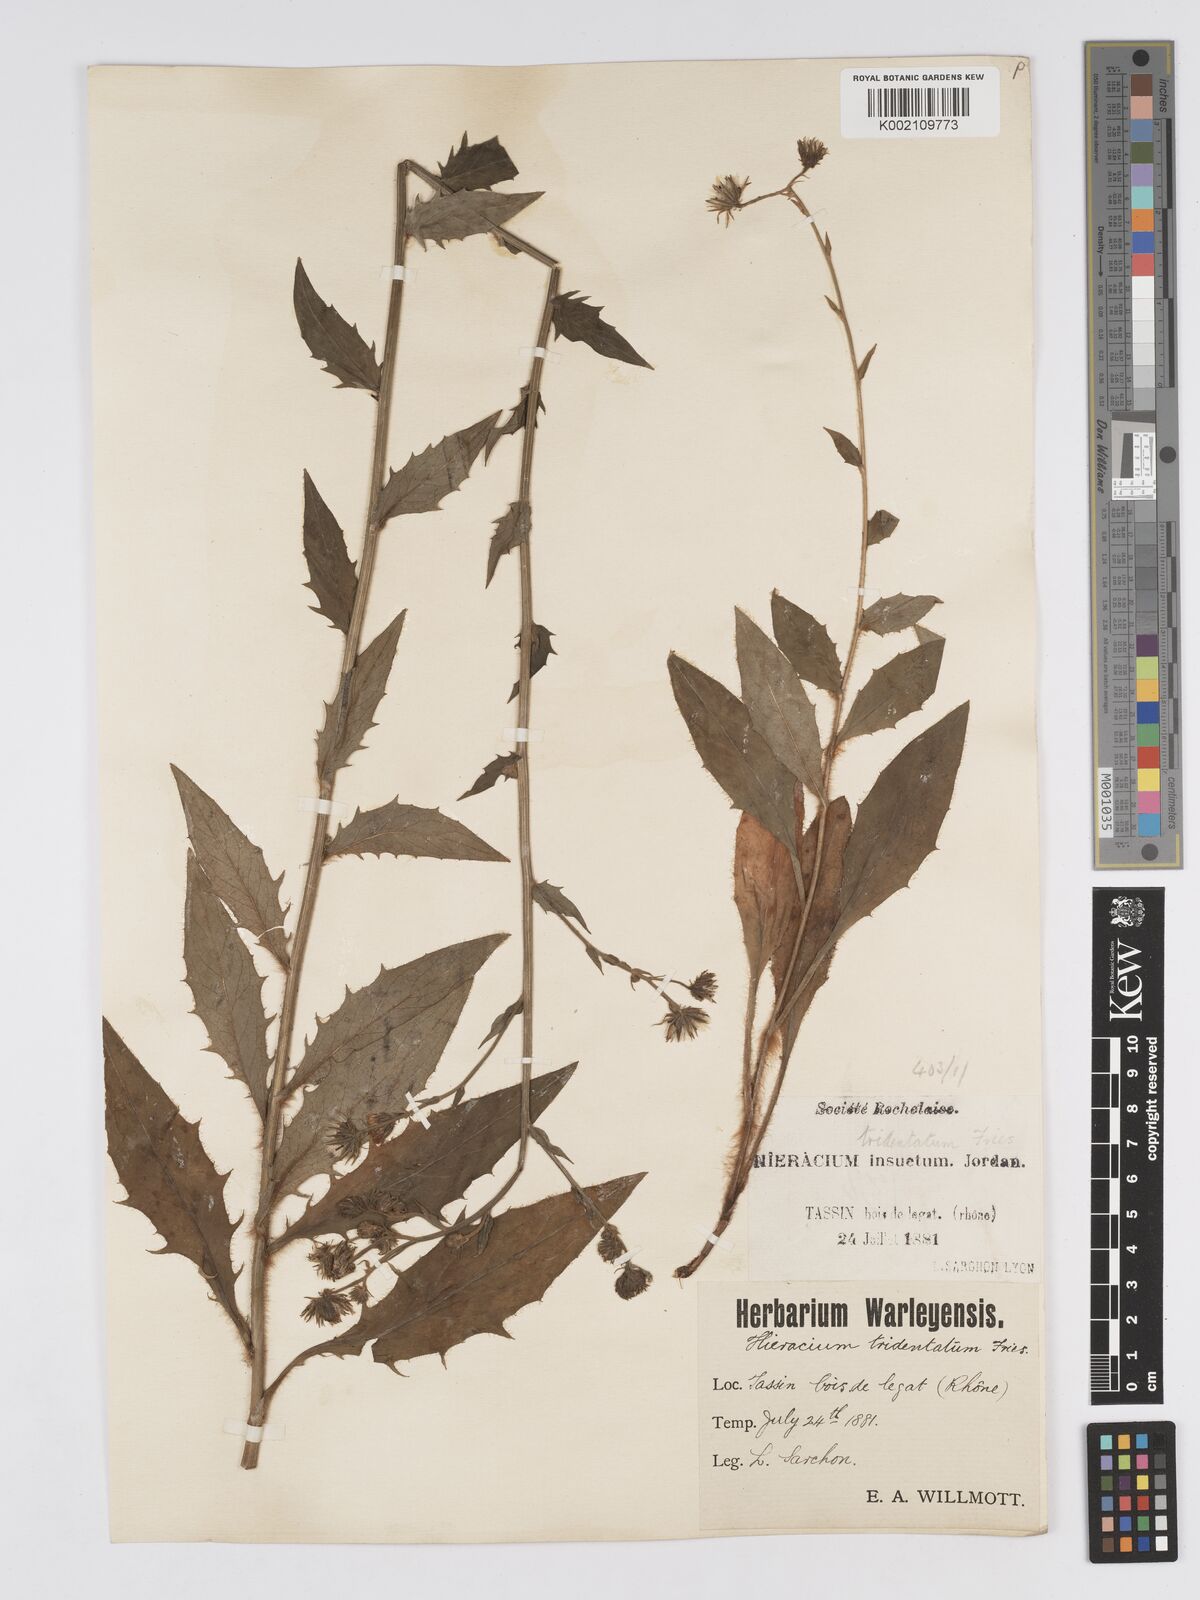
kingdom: Plantae
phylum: Tracheophyta
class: Magnoliopsida
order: Asterales
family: Asteraceae
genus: Hieracium
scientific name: Hieracium australe
